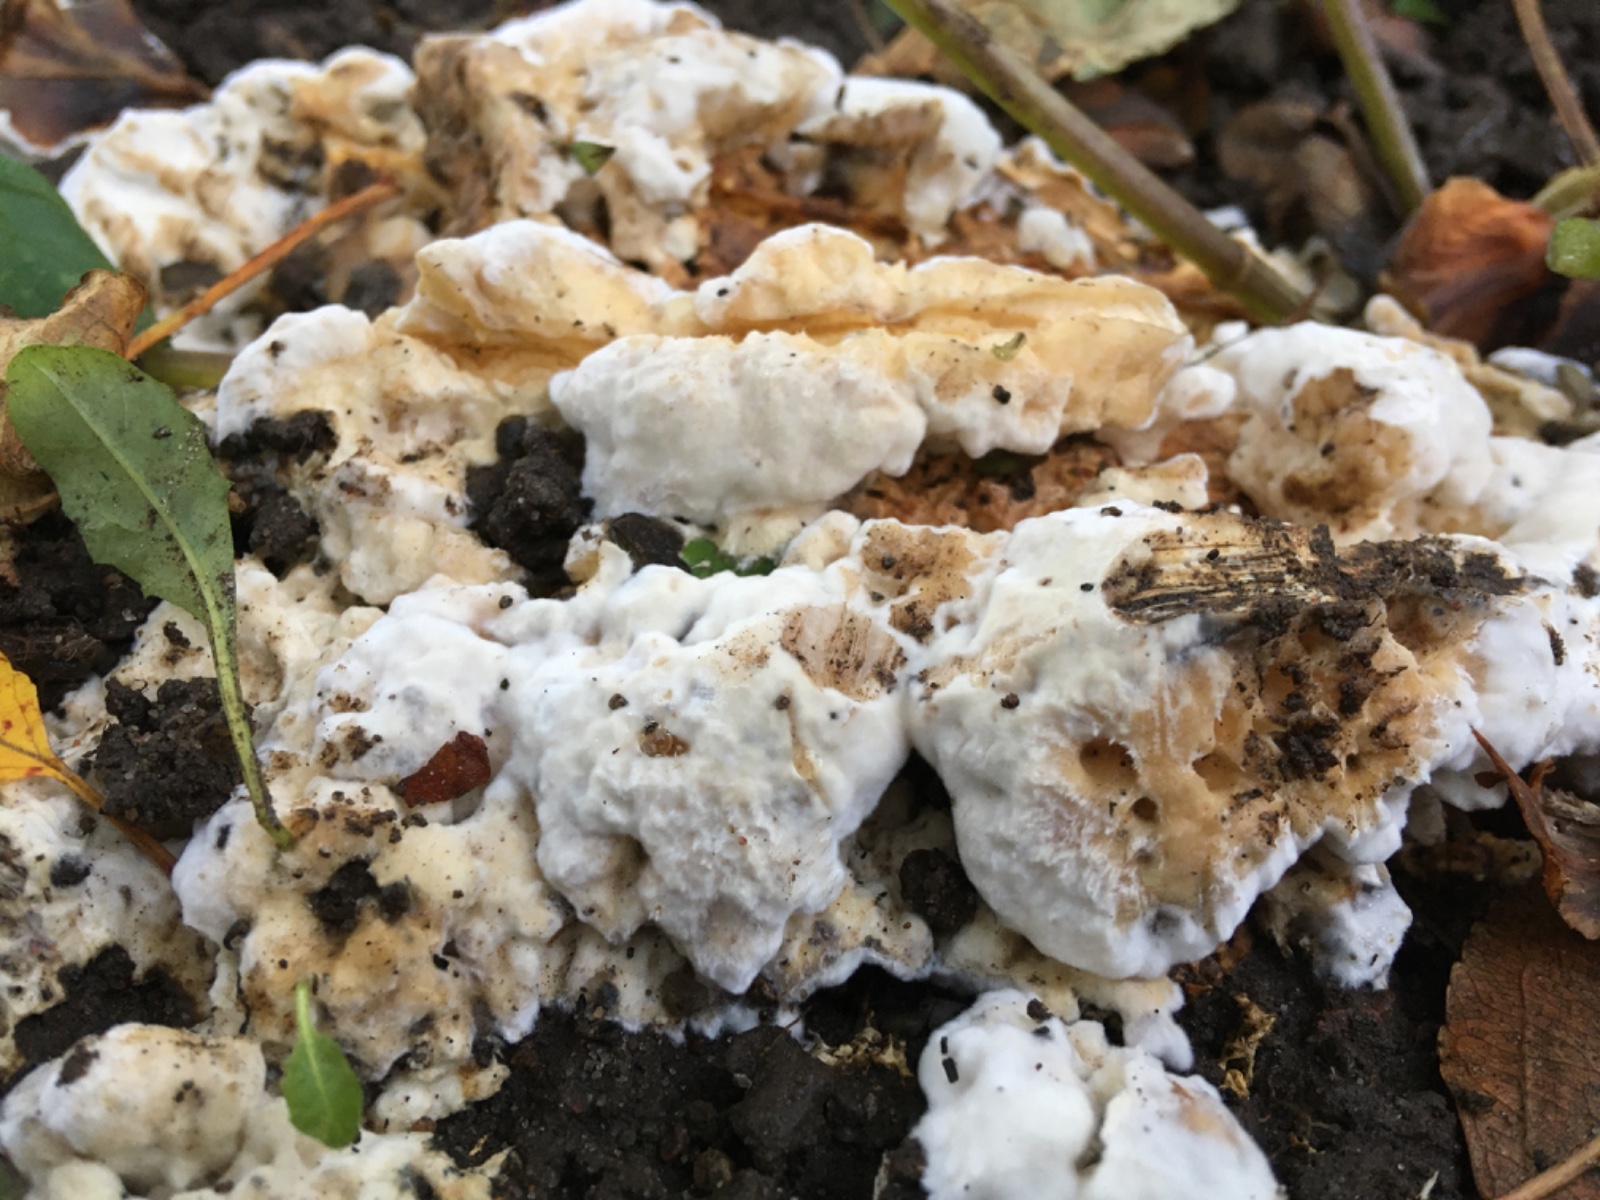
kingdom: Fungi
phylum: Basidiomycota
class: Agaricomycetes
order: Polyporales
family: Steccherinaceae
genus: Loweomyces
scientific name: Loweomyces wynneae
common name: krybende blødporesvamp
